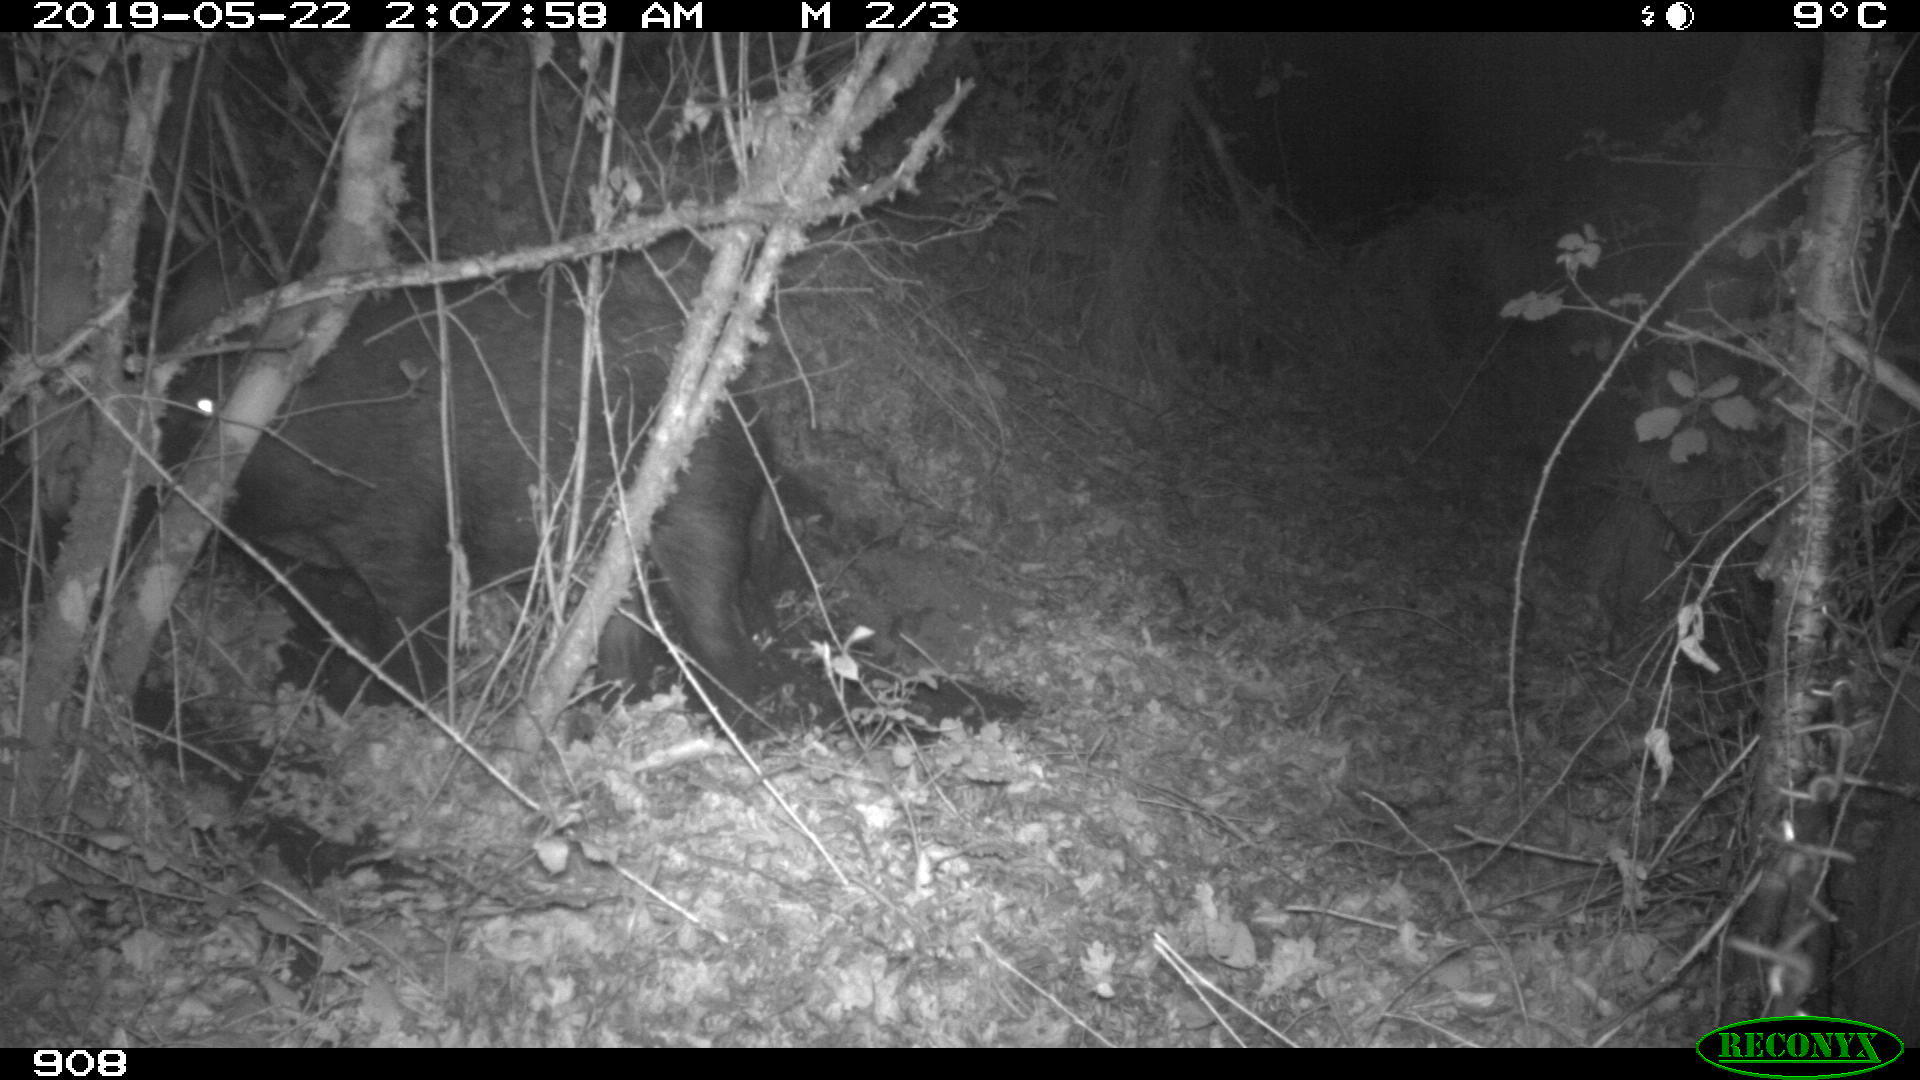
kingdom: Animalia
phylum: Chordata
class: Mammalia
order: Artiodactyla
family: Suidae
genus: Sus
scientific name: Sus scrofa
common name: Wild boar
